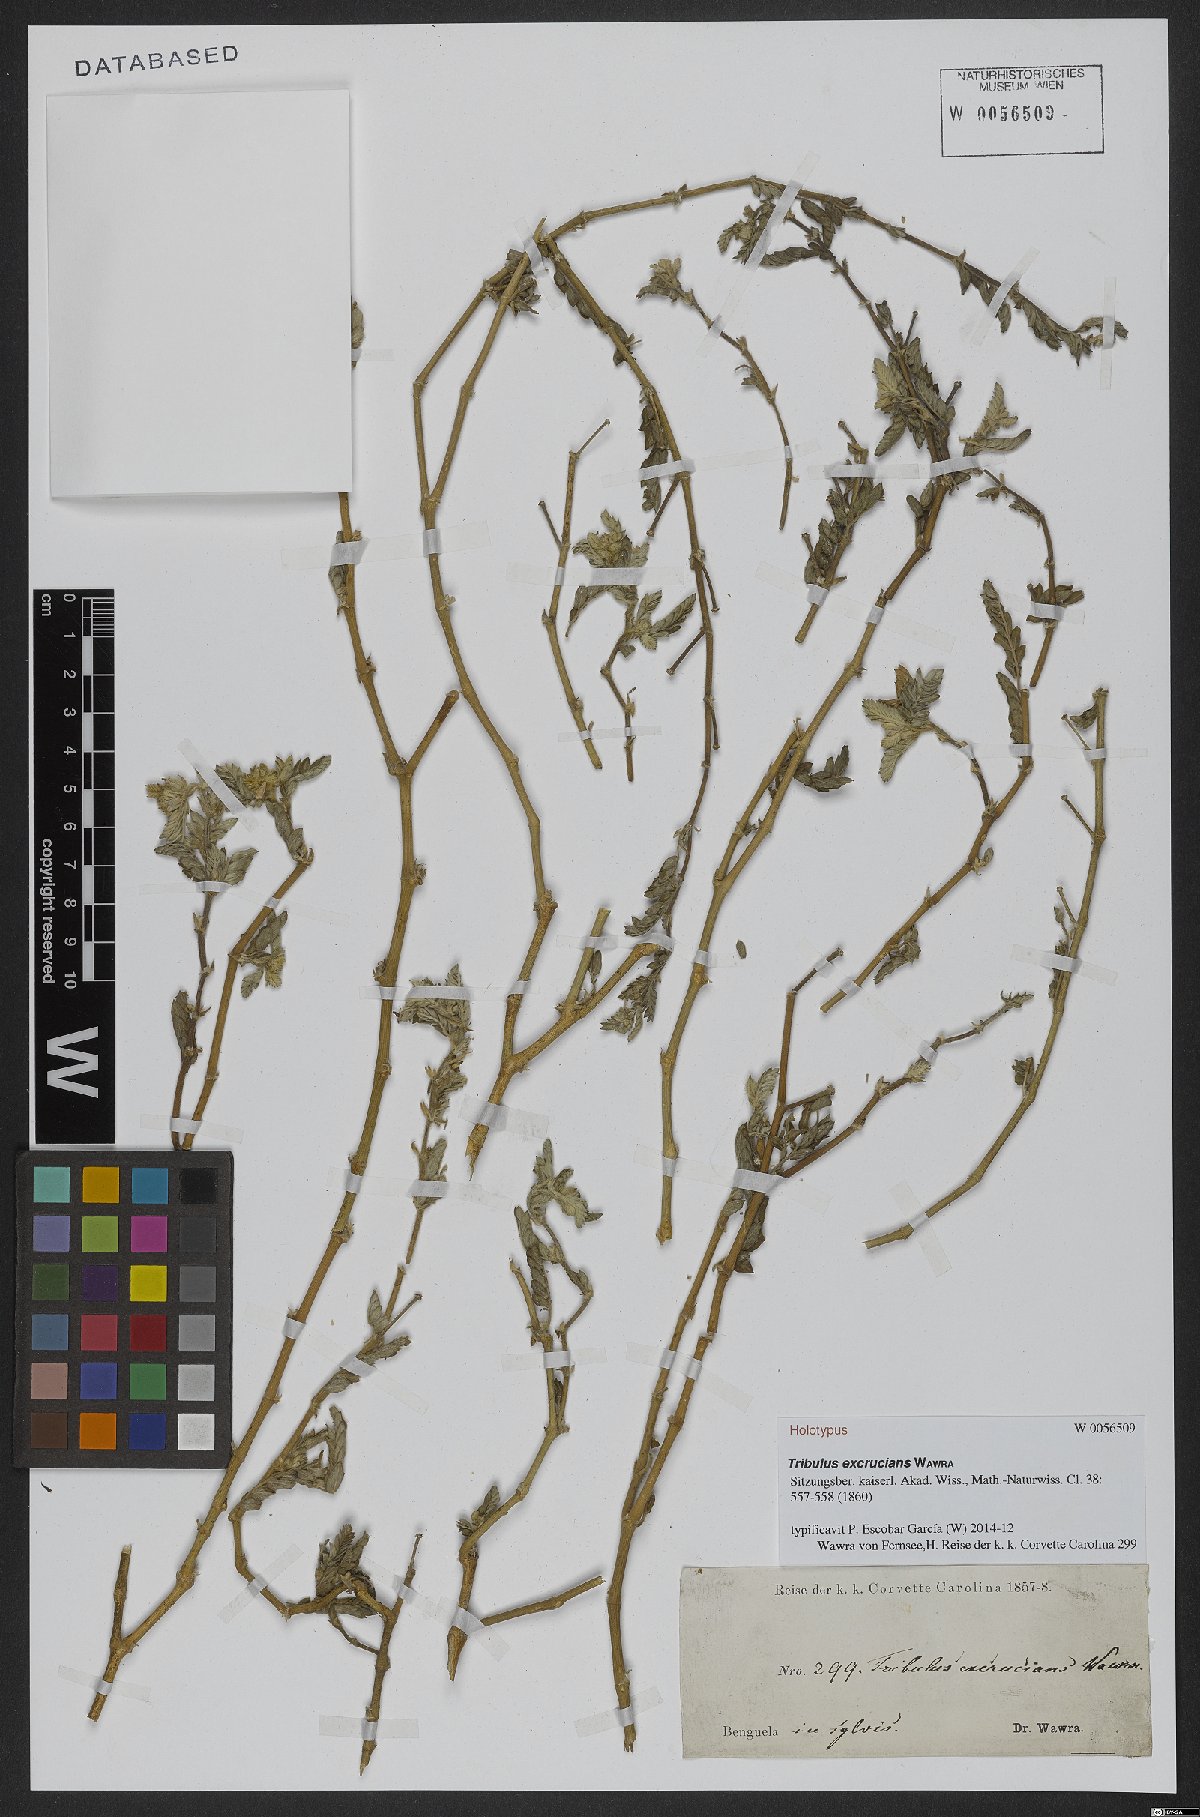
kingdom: Plantae
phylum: Tracheophyta
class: Magnoliopsida
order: Zygophyllales
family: Zygophyllaceae
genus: Tribulus
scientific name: Tribulus excrucians
